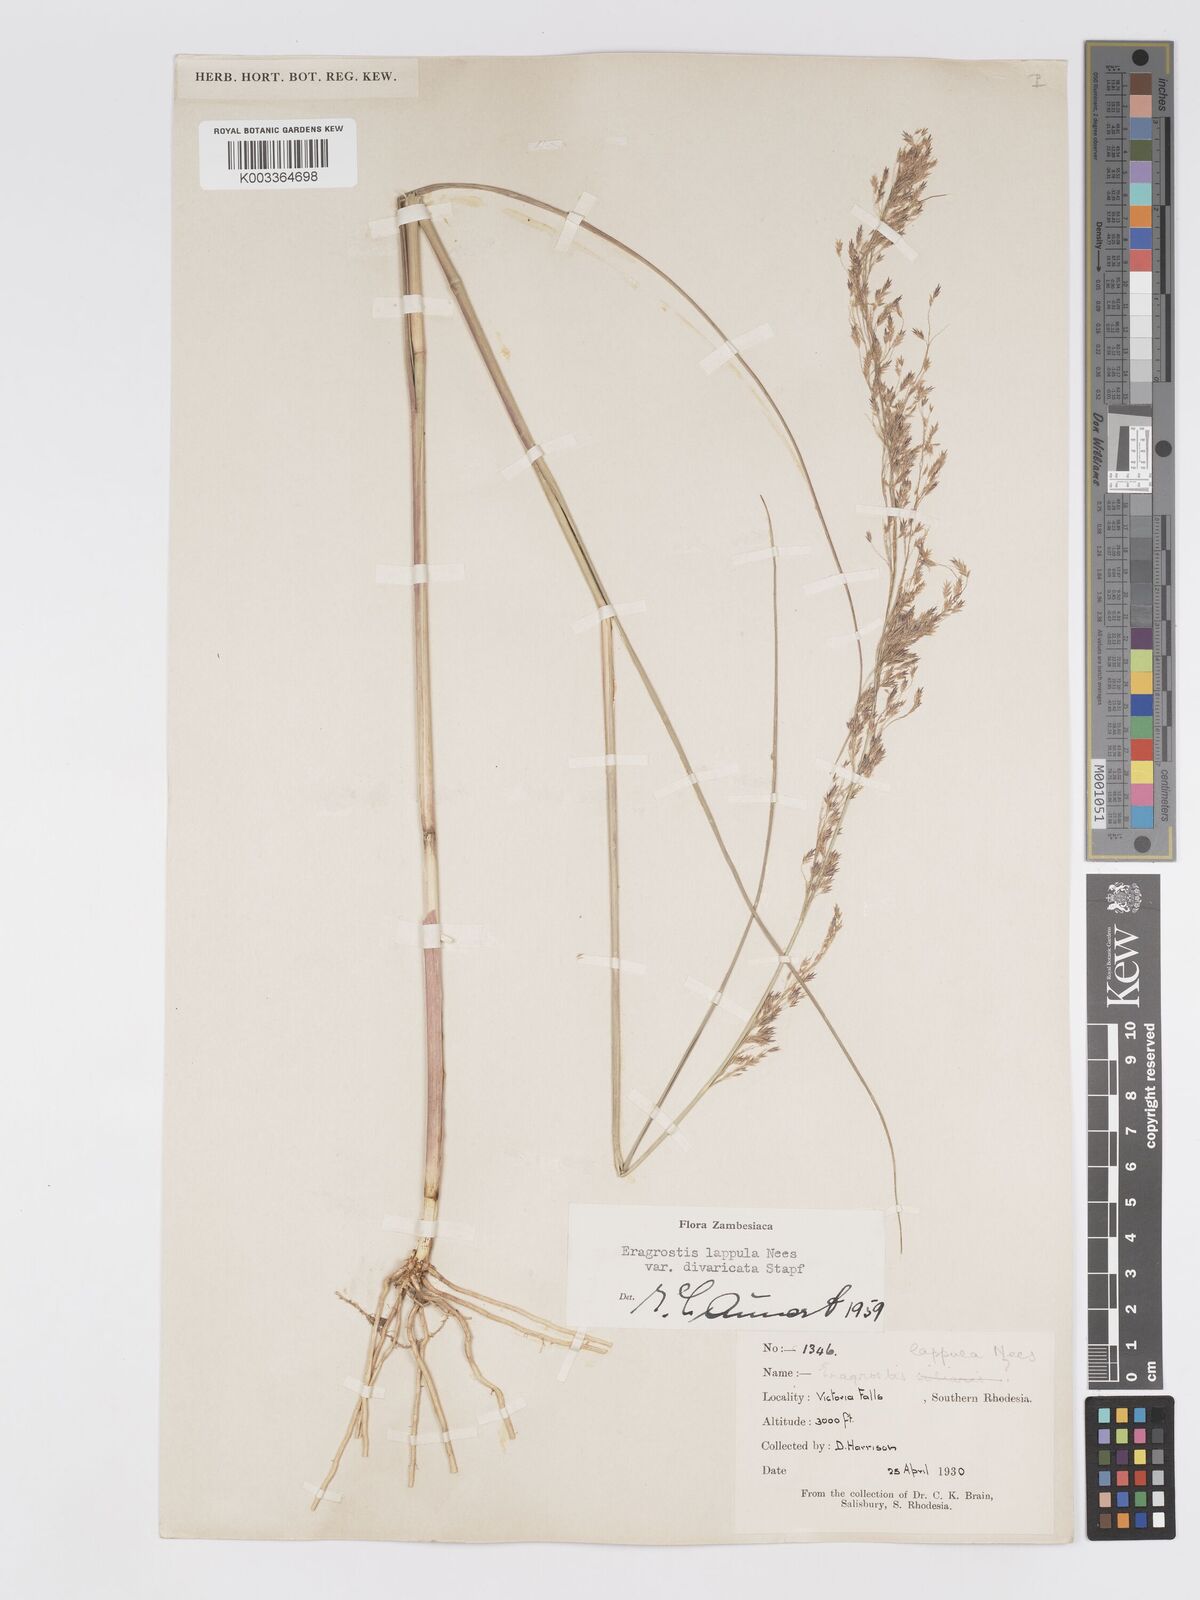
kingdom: Plantae
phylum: Tracheophyta
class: Liliopsida
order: Poales
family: Poaceae
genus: Eragrostis
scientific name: Eragrostis lappula
